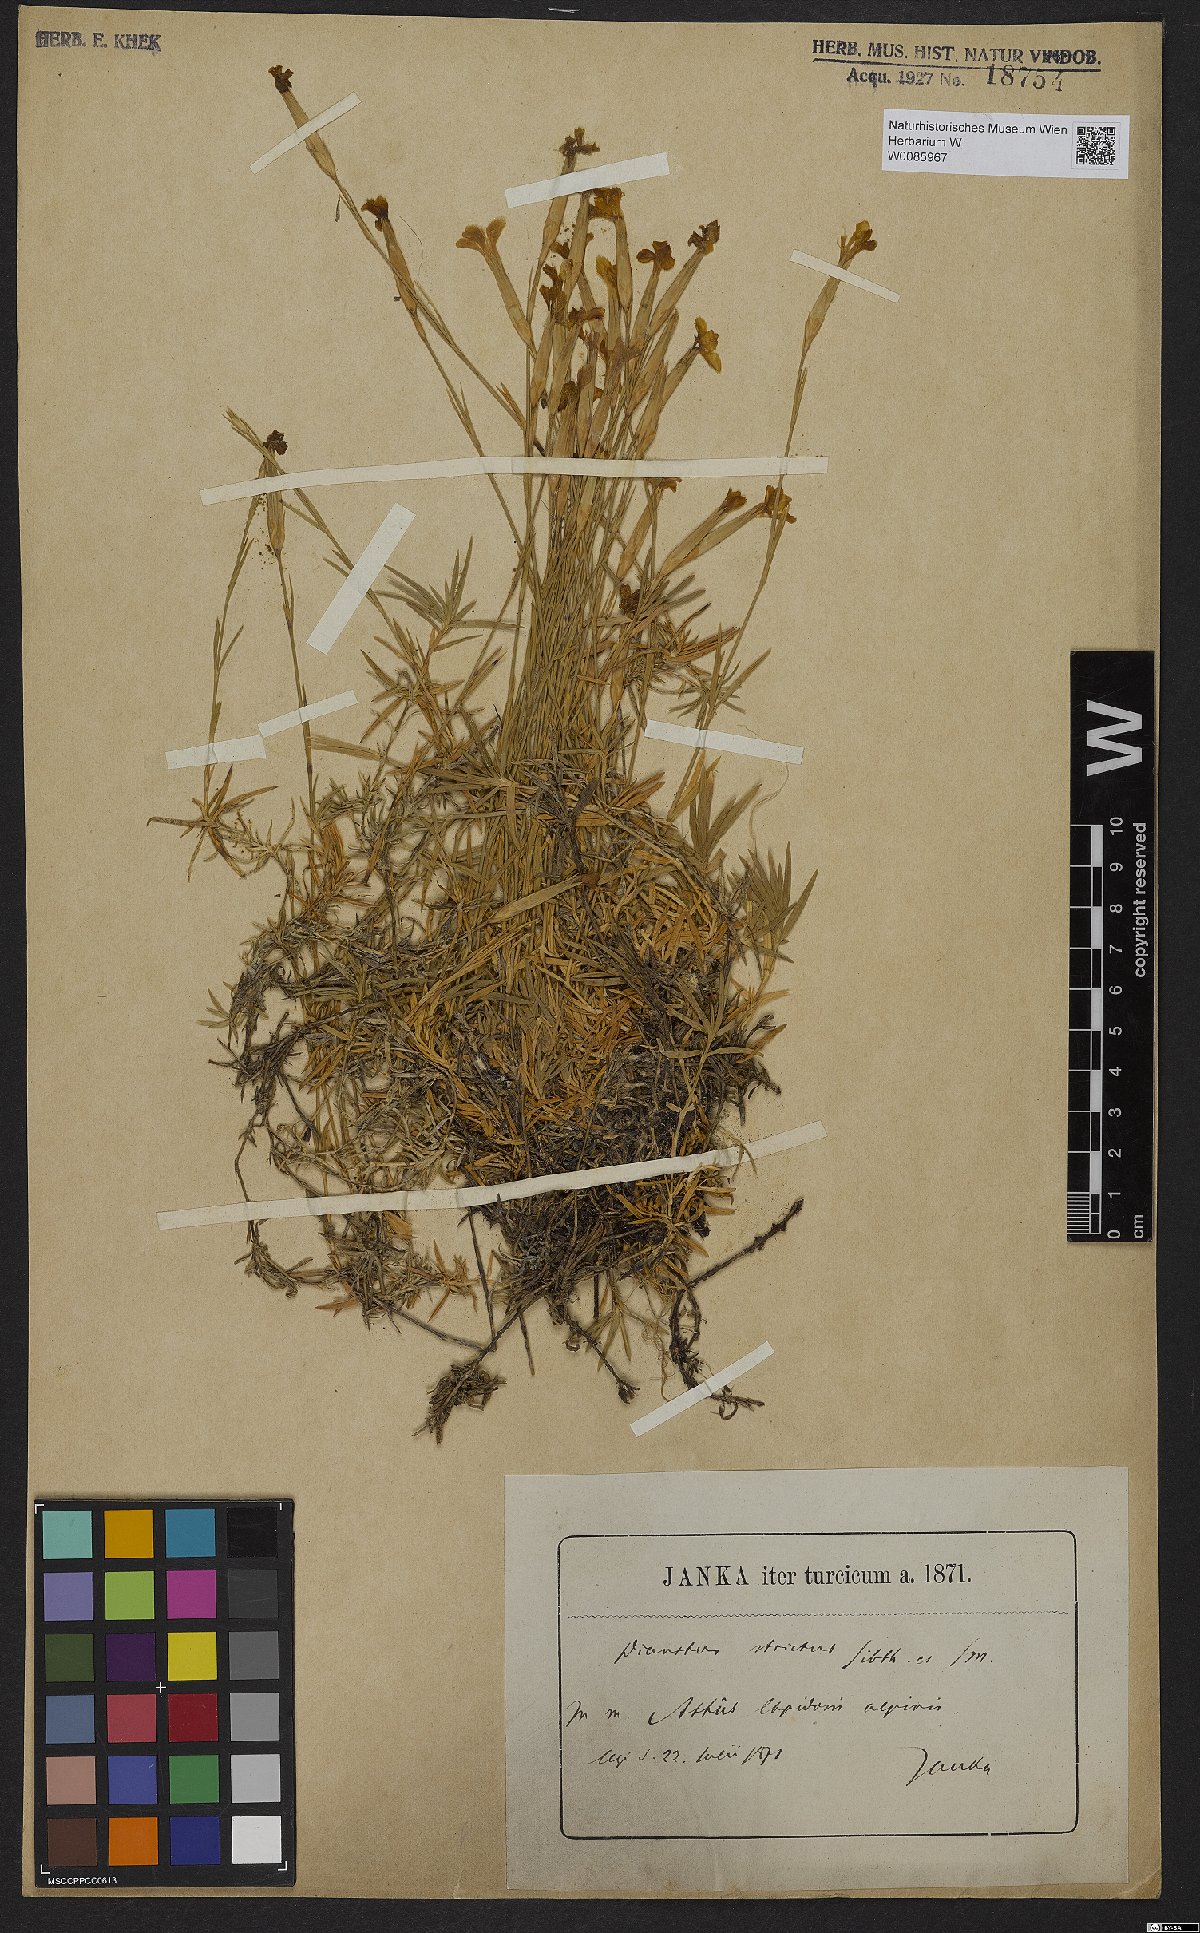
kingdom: Plantae
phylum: Tracheophyta
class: Magnoliopsida
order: Caryophyllales
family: Caryophyllaceae
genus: Dianthus
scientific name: Dianthus petraeus
